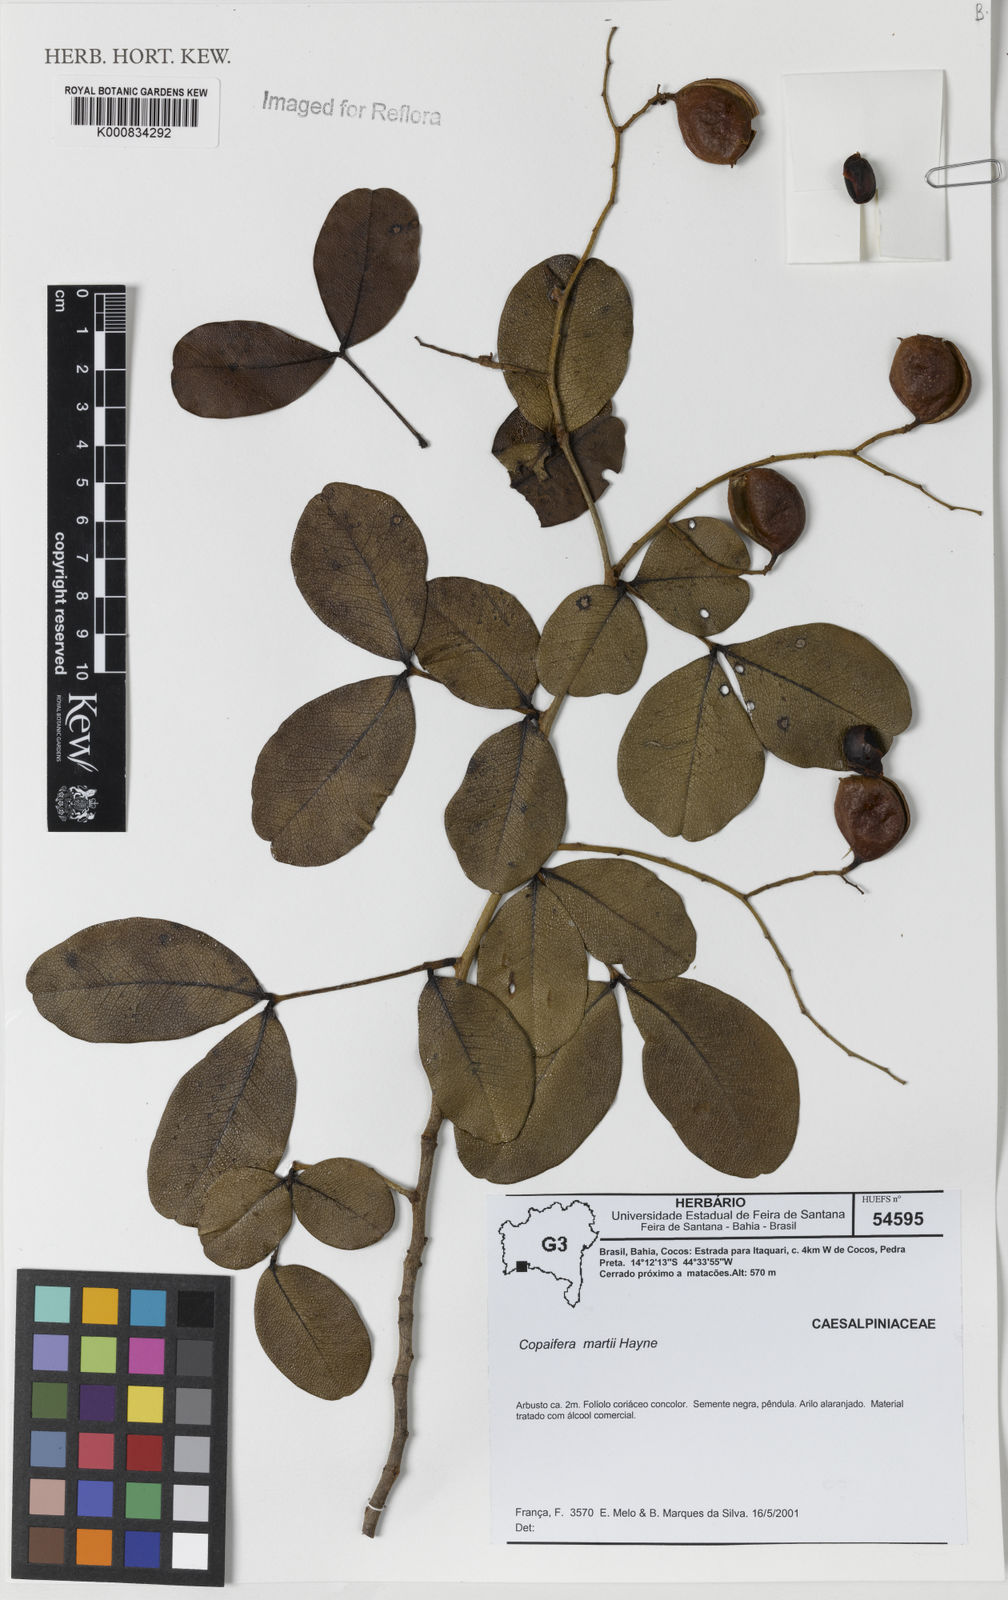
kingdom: Plantae
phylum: Tracheophyta
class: Magnoliopsida
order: Fabales
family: Fabaceae
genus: Copaifera
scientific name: Copaifera martii
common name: Copaiba
